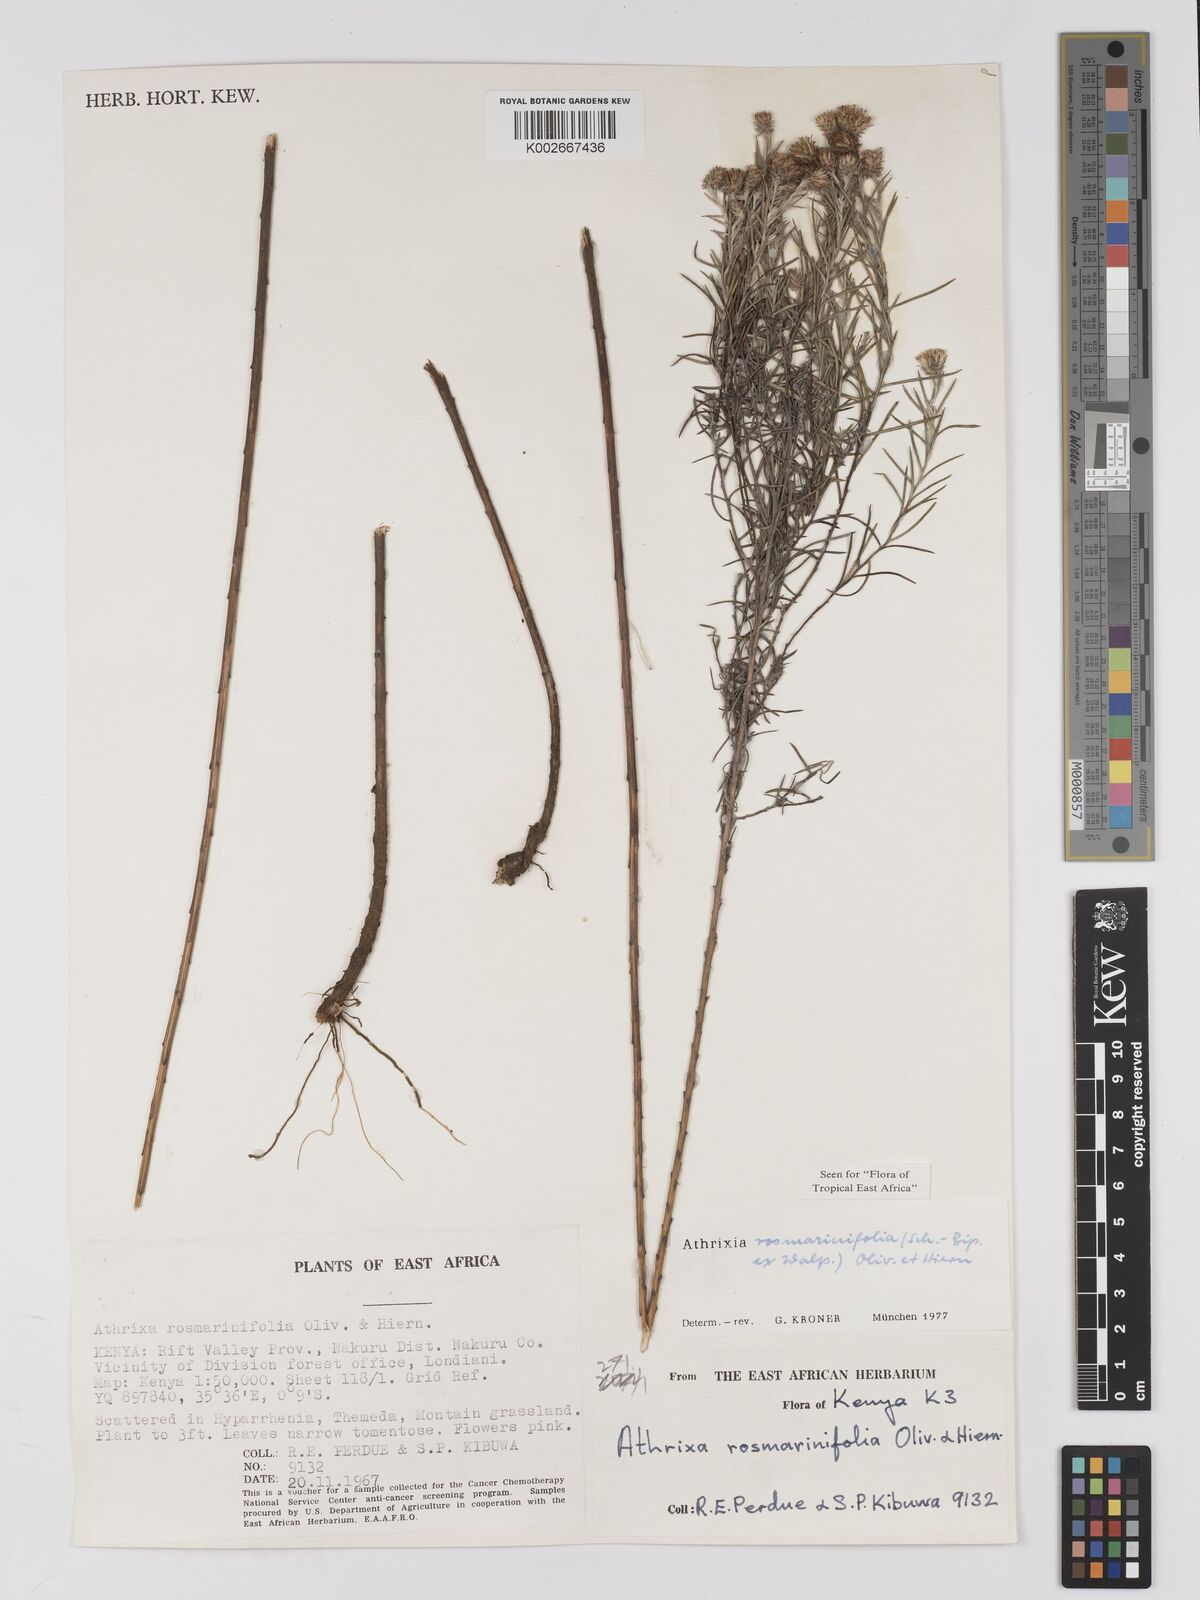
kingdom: Plantae
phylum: Tracheophyta
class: Magnoliopsida
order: Asterales
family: Asteraceae
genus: Athrixia
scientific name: Athrixia rosmarinifolia
